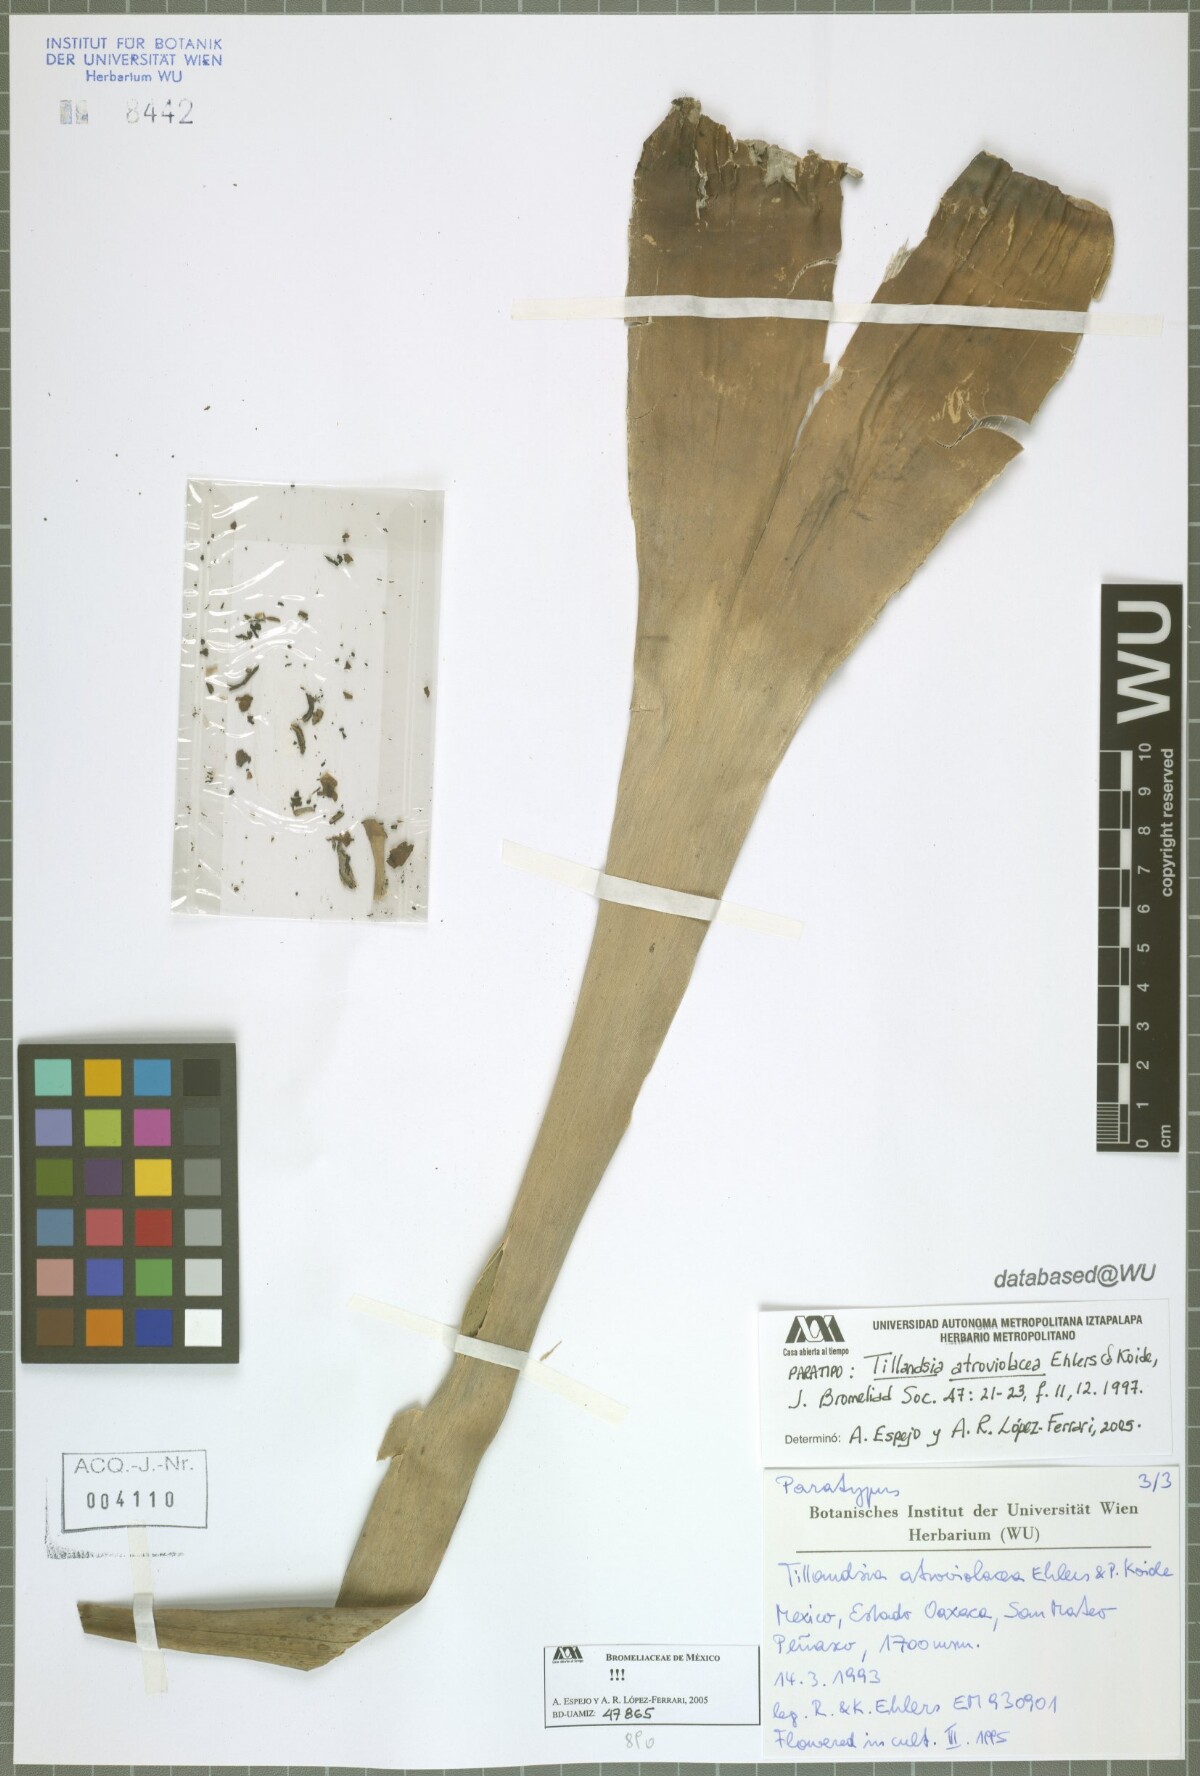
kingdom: Plantae
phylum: Tracheophyta
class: Liliopsida
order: Poales
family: Bromeliaceae
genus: Tillandsia
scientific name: Tillandsia atroviolacea
